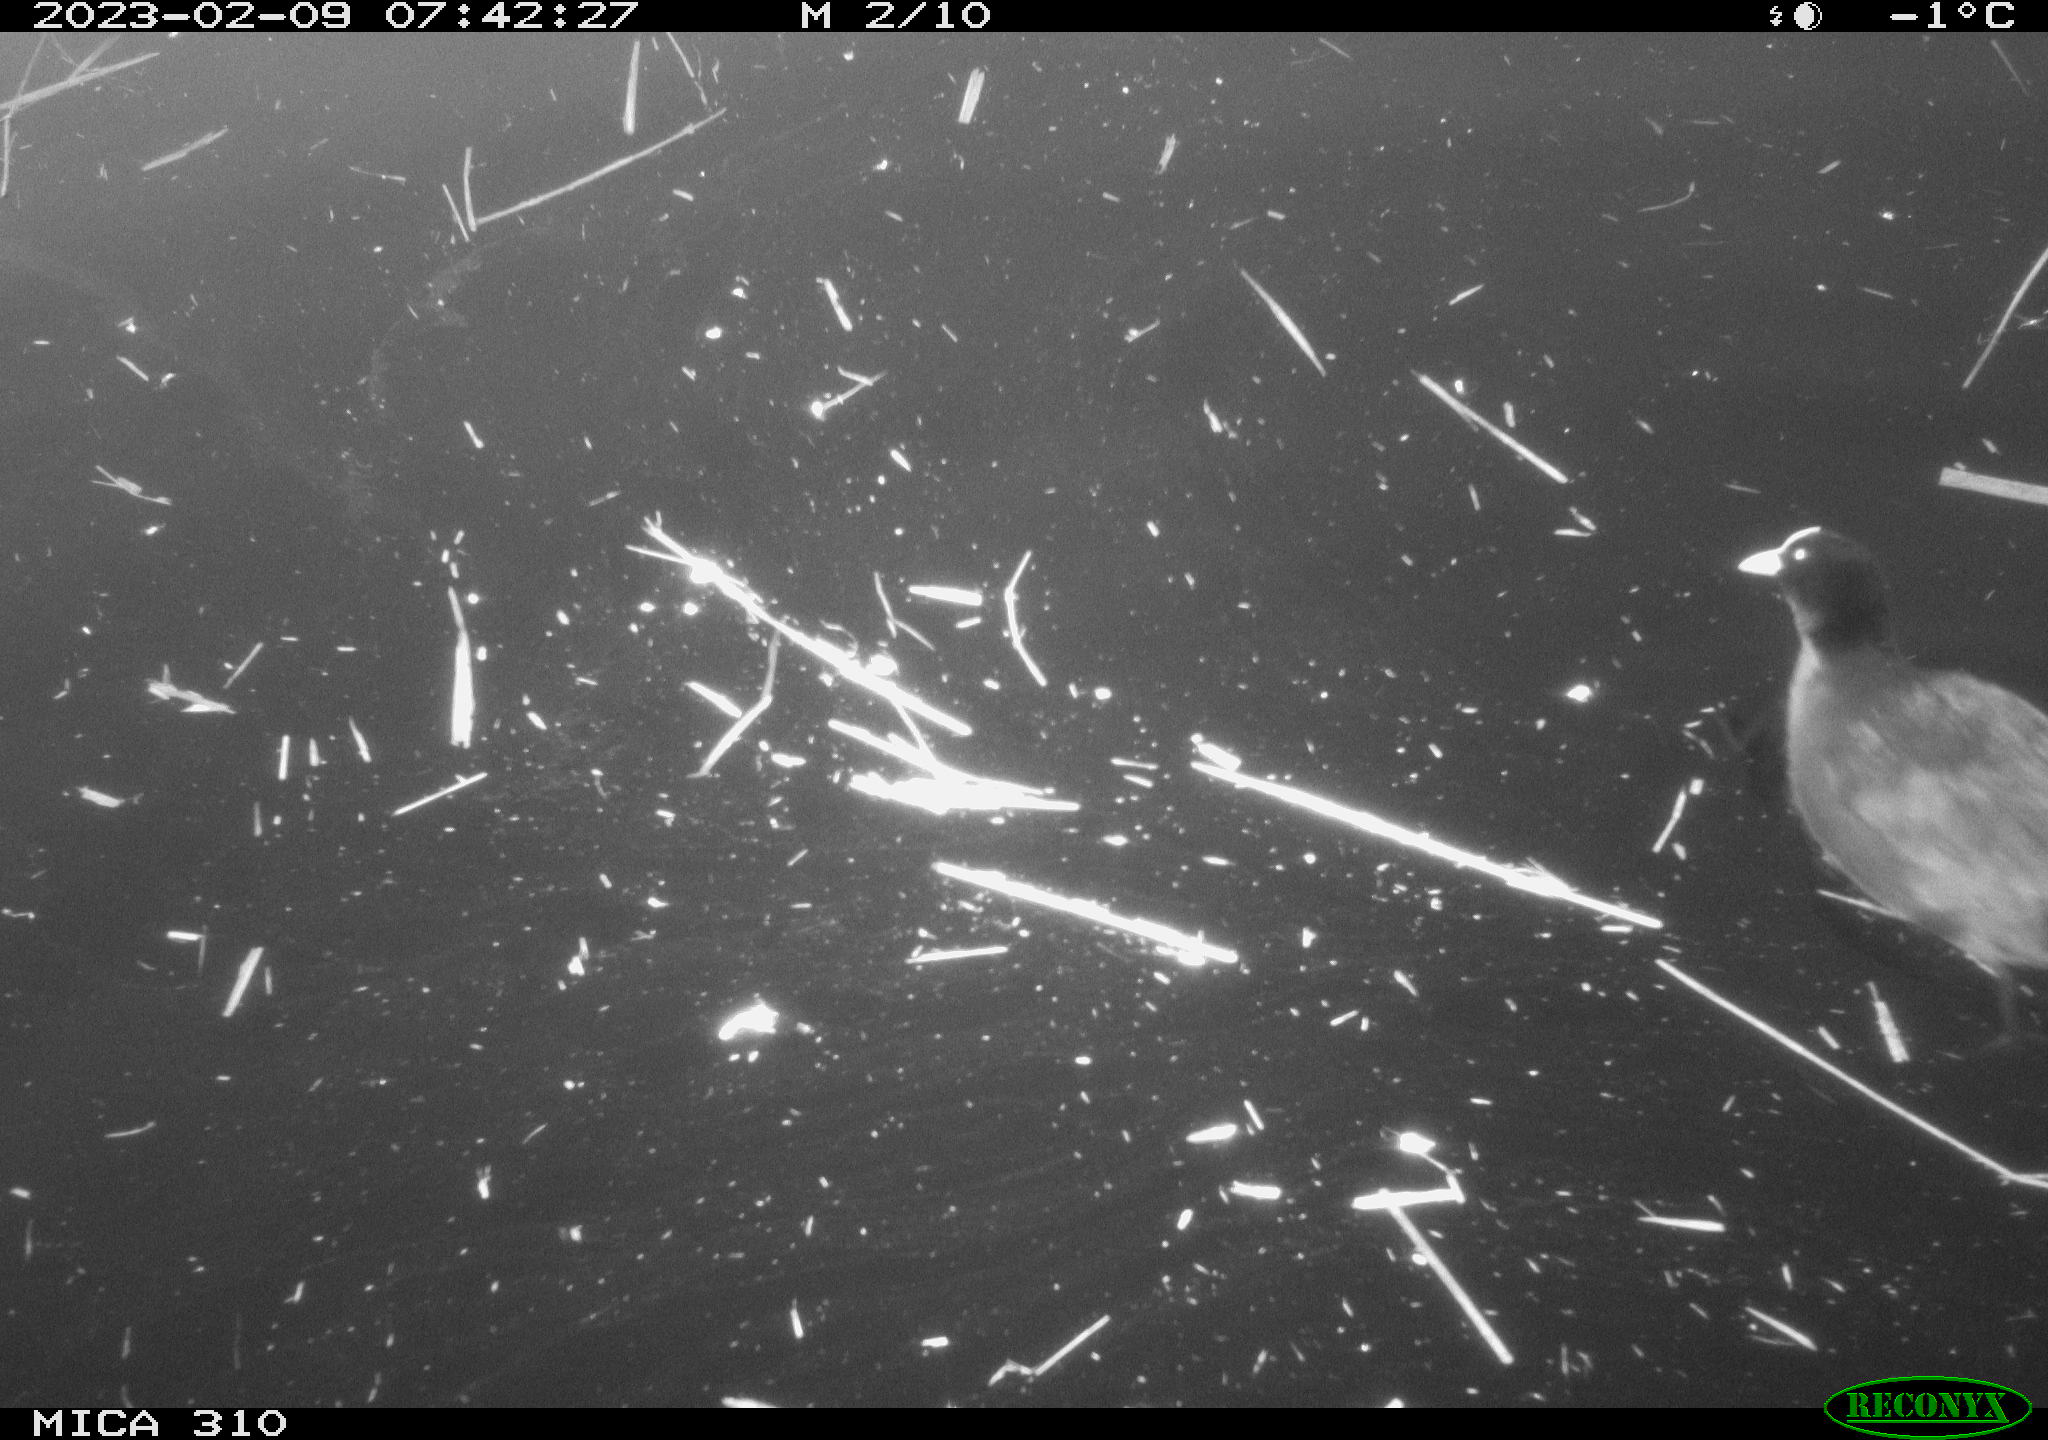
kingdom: Animalia
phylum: Chordata
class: Mammalia
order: Rodentia
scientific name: Rodentia
